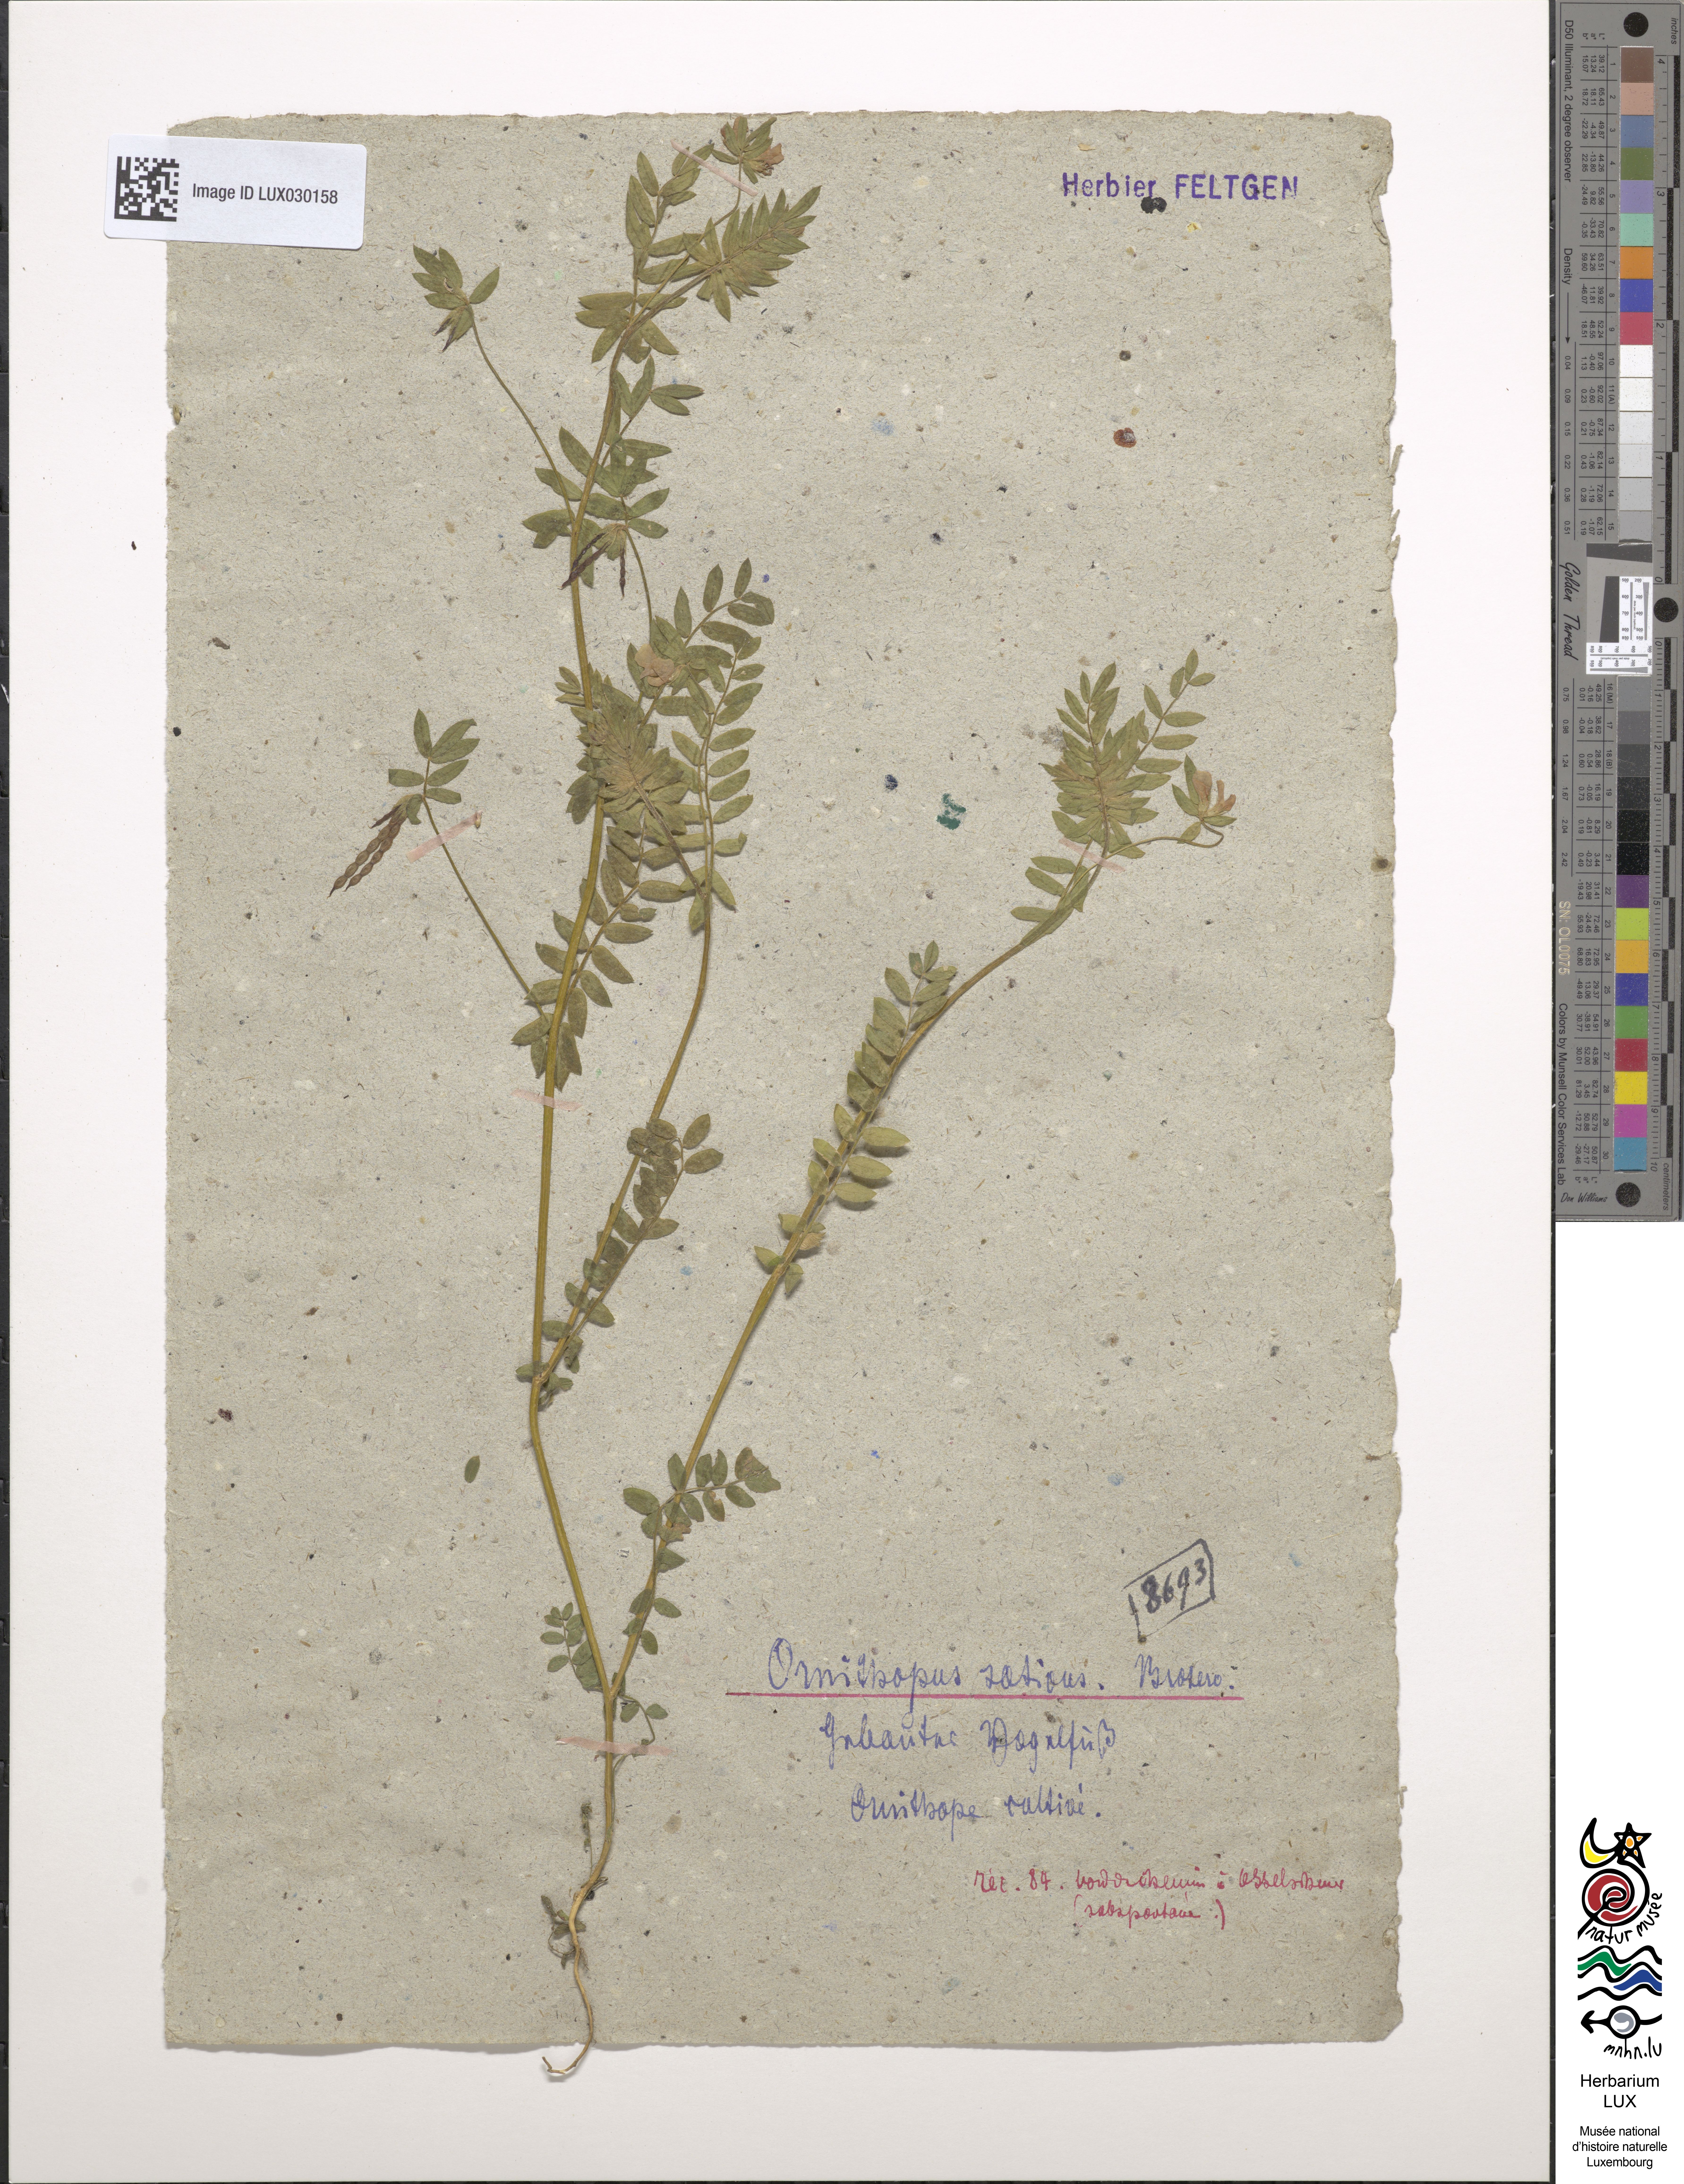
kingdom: Plantae
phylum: Tracheophyta
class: Magnoliopsida
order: Fabales
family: Fabaceae
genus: Ornithopus
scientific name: Ornithopus sativus
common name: Serradella
